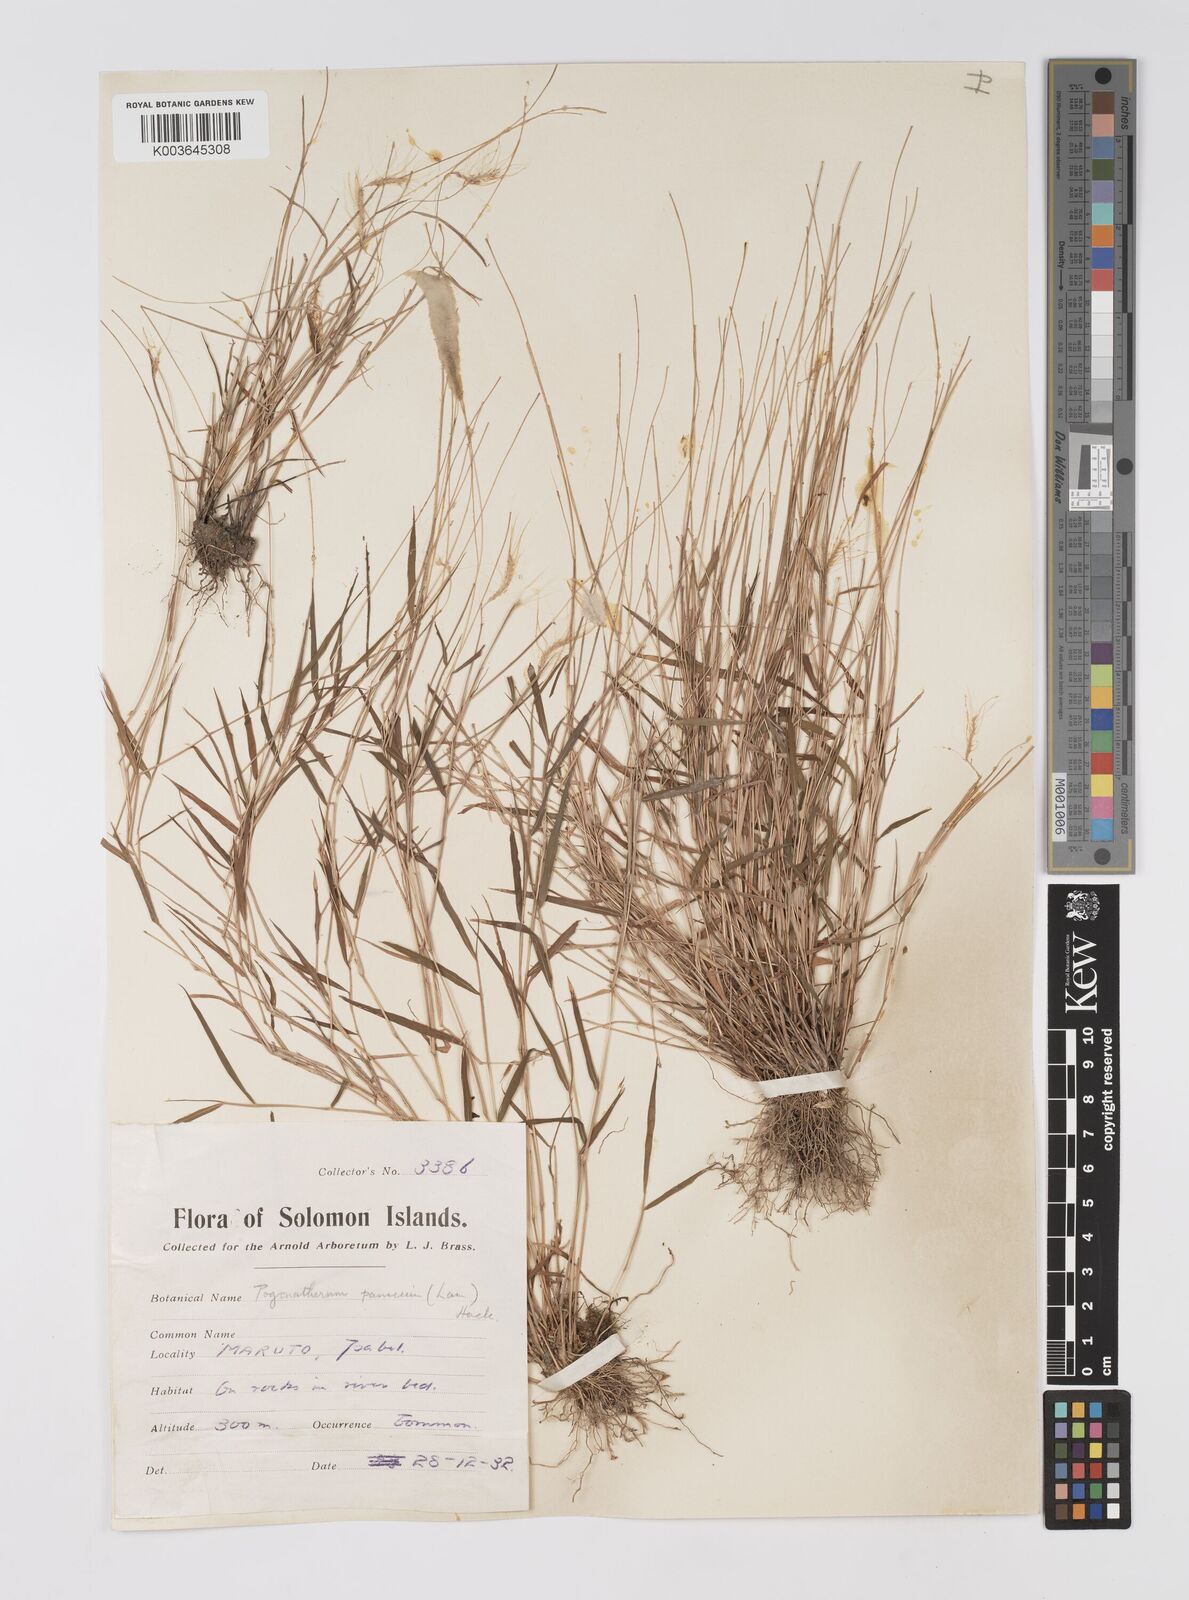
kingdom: Plantae
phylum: Tracheophyta
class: Liliopsida
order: Poales
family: Poaceae
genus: Pogonatherum
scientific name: Pogonatherum crinitum
